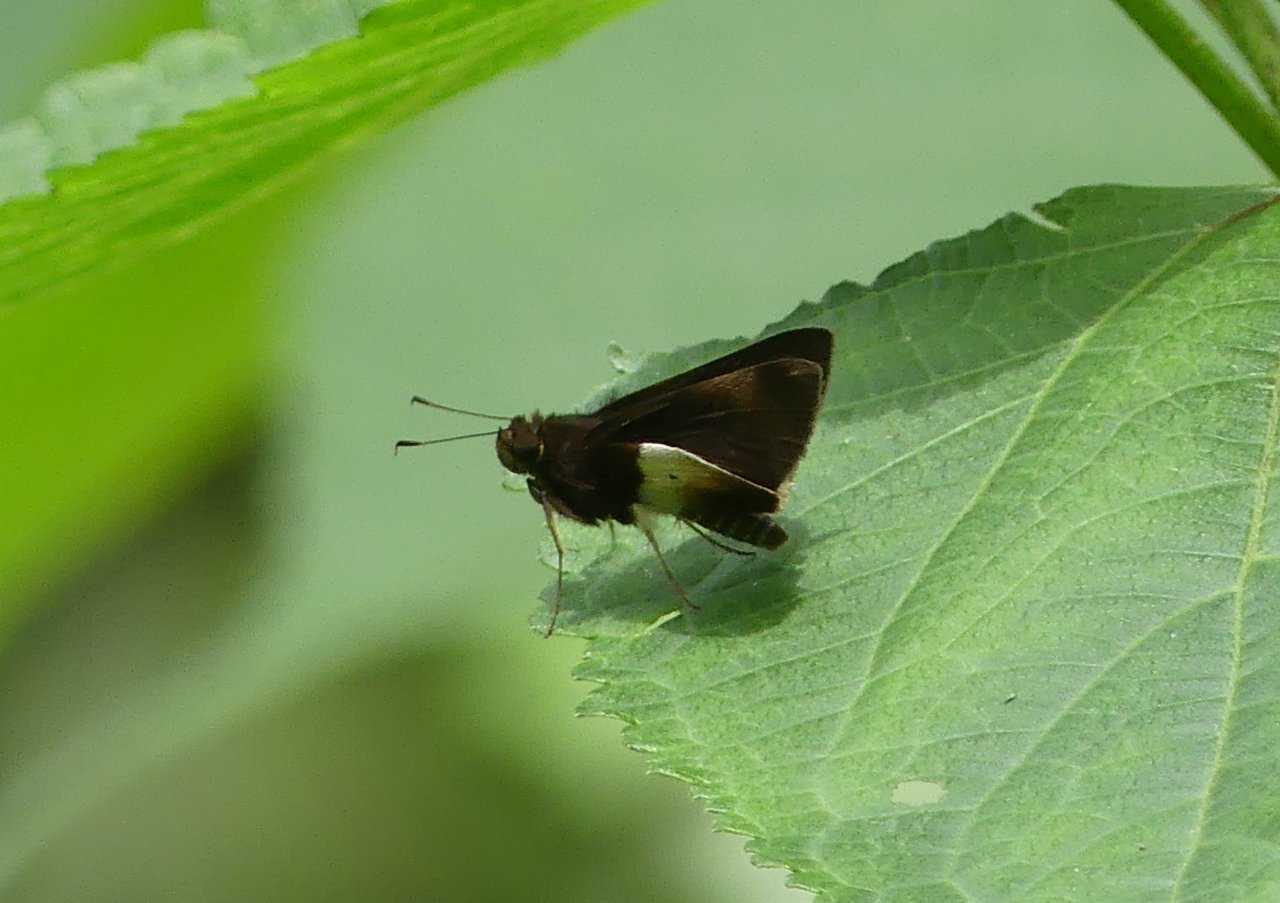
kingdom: Animalia
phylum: Arthropoda
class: Insecta
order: Lepidoptera
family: Hesperiidae
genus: Moeris
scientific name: Moeris remus
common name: Black-spot Remella
